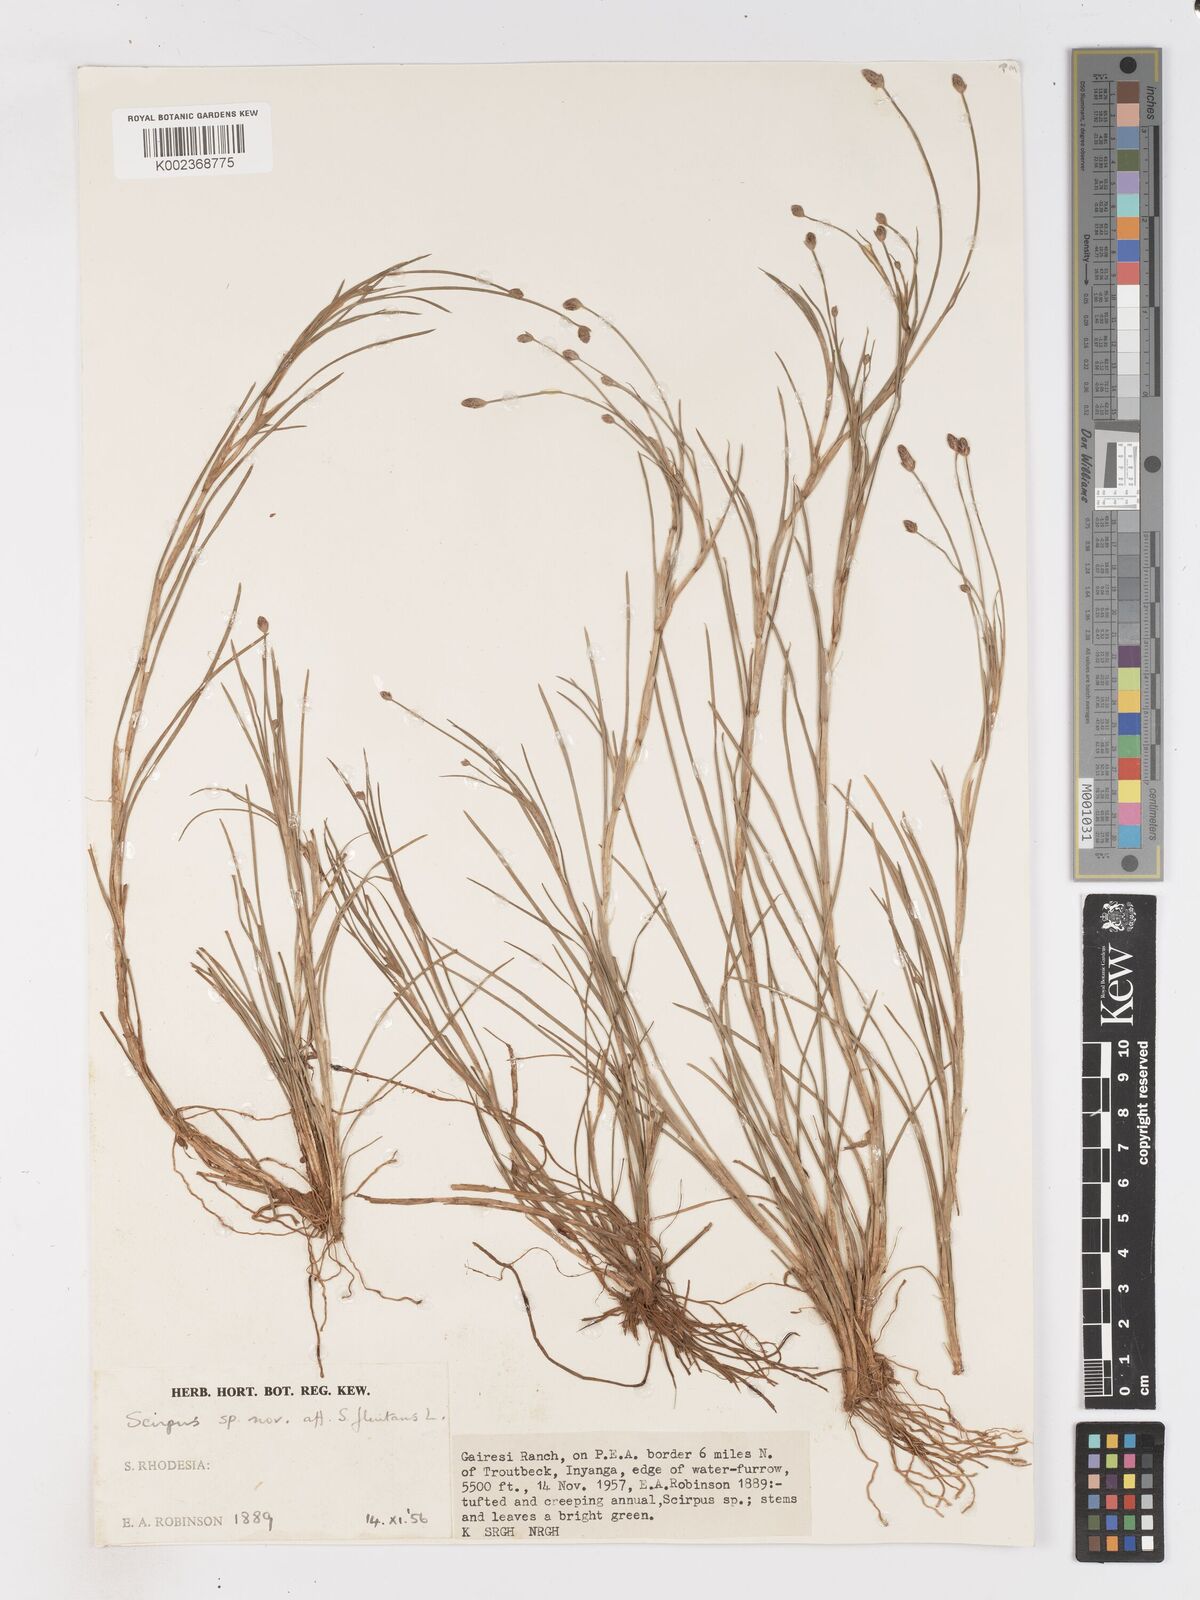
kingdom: Plantae
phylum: Tracheophyta
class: Liliopsida
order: Poales
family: Cyperaceae
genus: Isolepis
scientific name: Isolepis fluitans
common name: Floating club-rush
